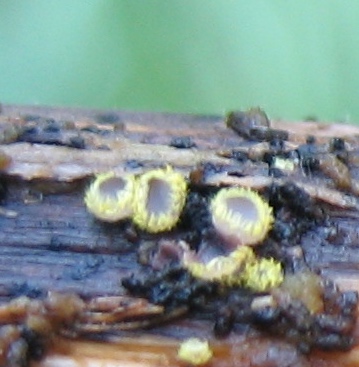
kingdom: Fungi
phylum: Ascomycota
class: Leotiomycetes
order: Helotiales
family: Lachnaceae
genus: Trichopeziza
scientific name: Trichopeziza
